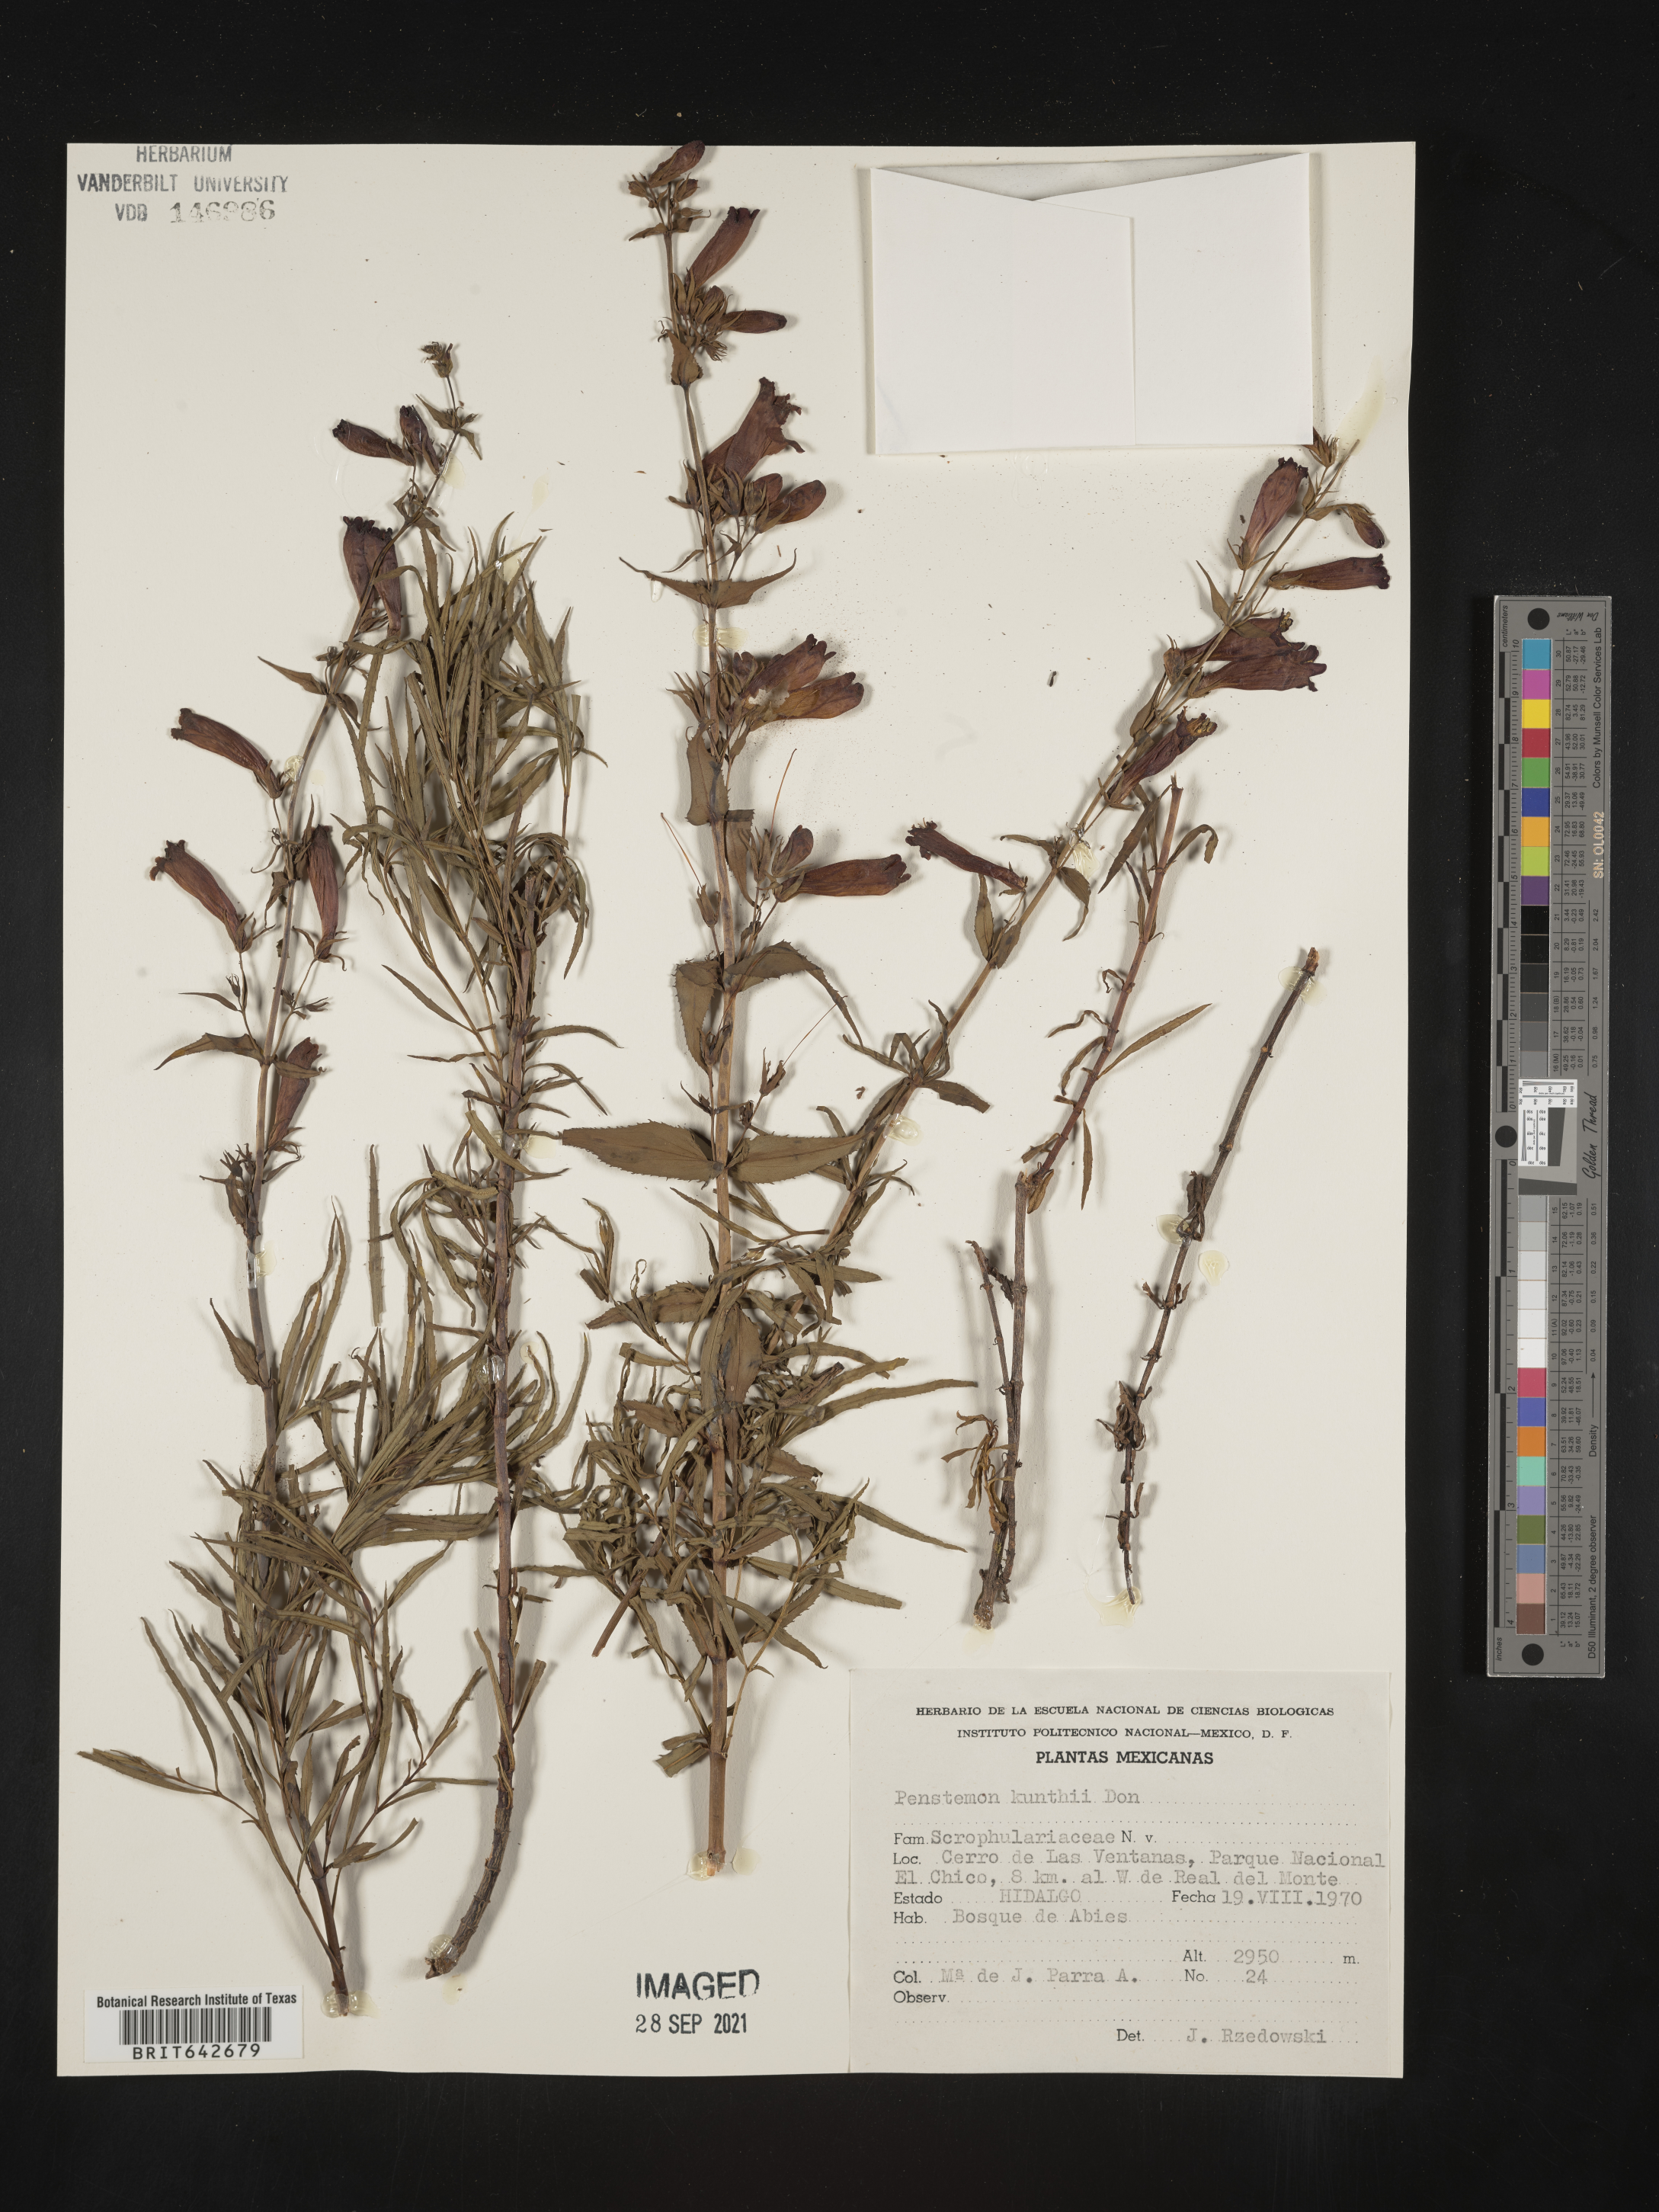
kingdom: Plantae
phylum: Tracheophyta
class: Magnoliopsida
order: Lamiales
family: Plantaginaceae
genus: Penstemon
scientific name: Penstemon
